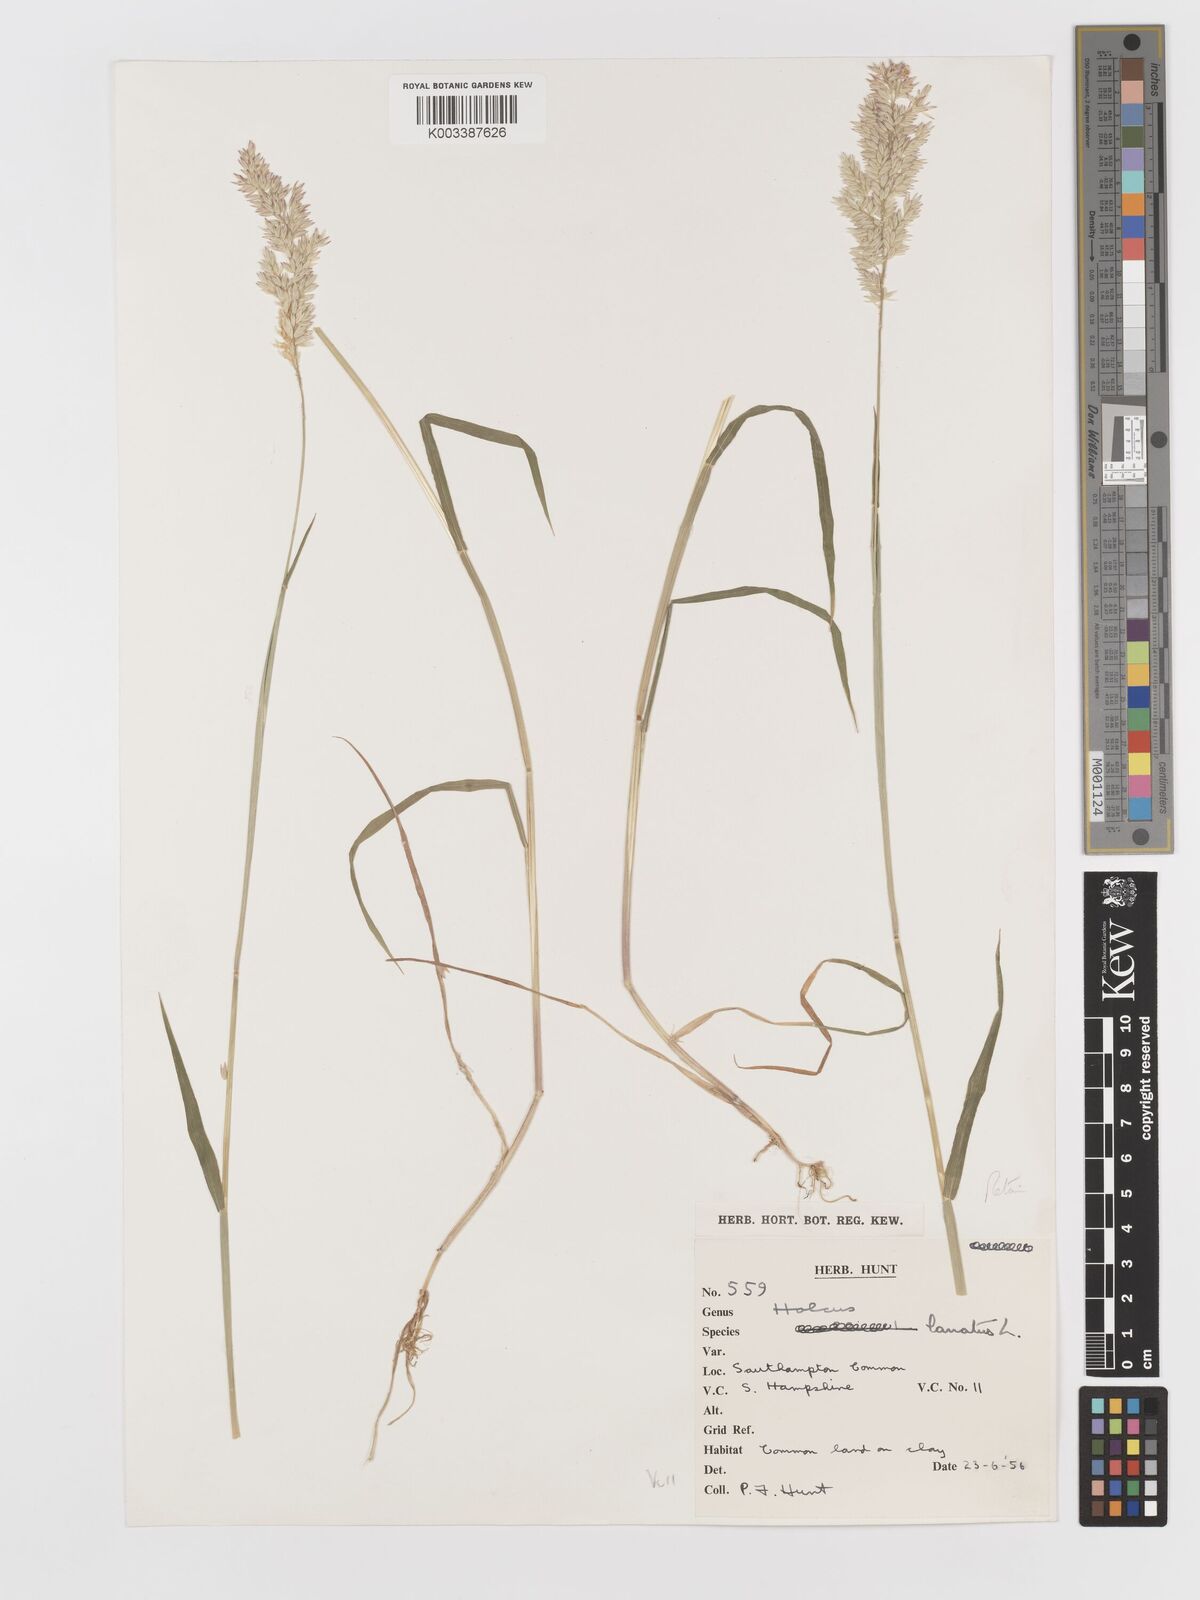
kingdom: Plantae
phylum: Tracheophyta
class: Liliopsida
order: Poales
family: Poaceae
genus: Holcus
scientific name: Holcus lanatus
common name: Yorkshire-fog
